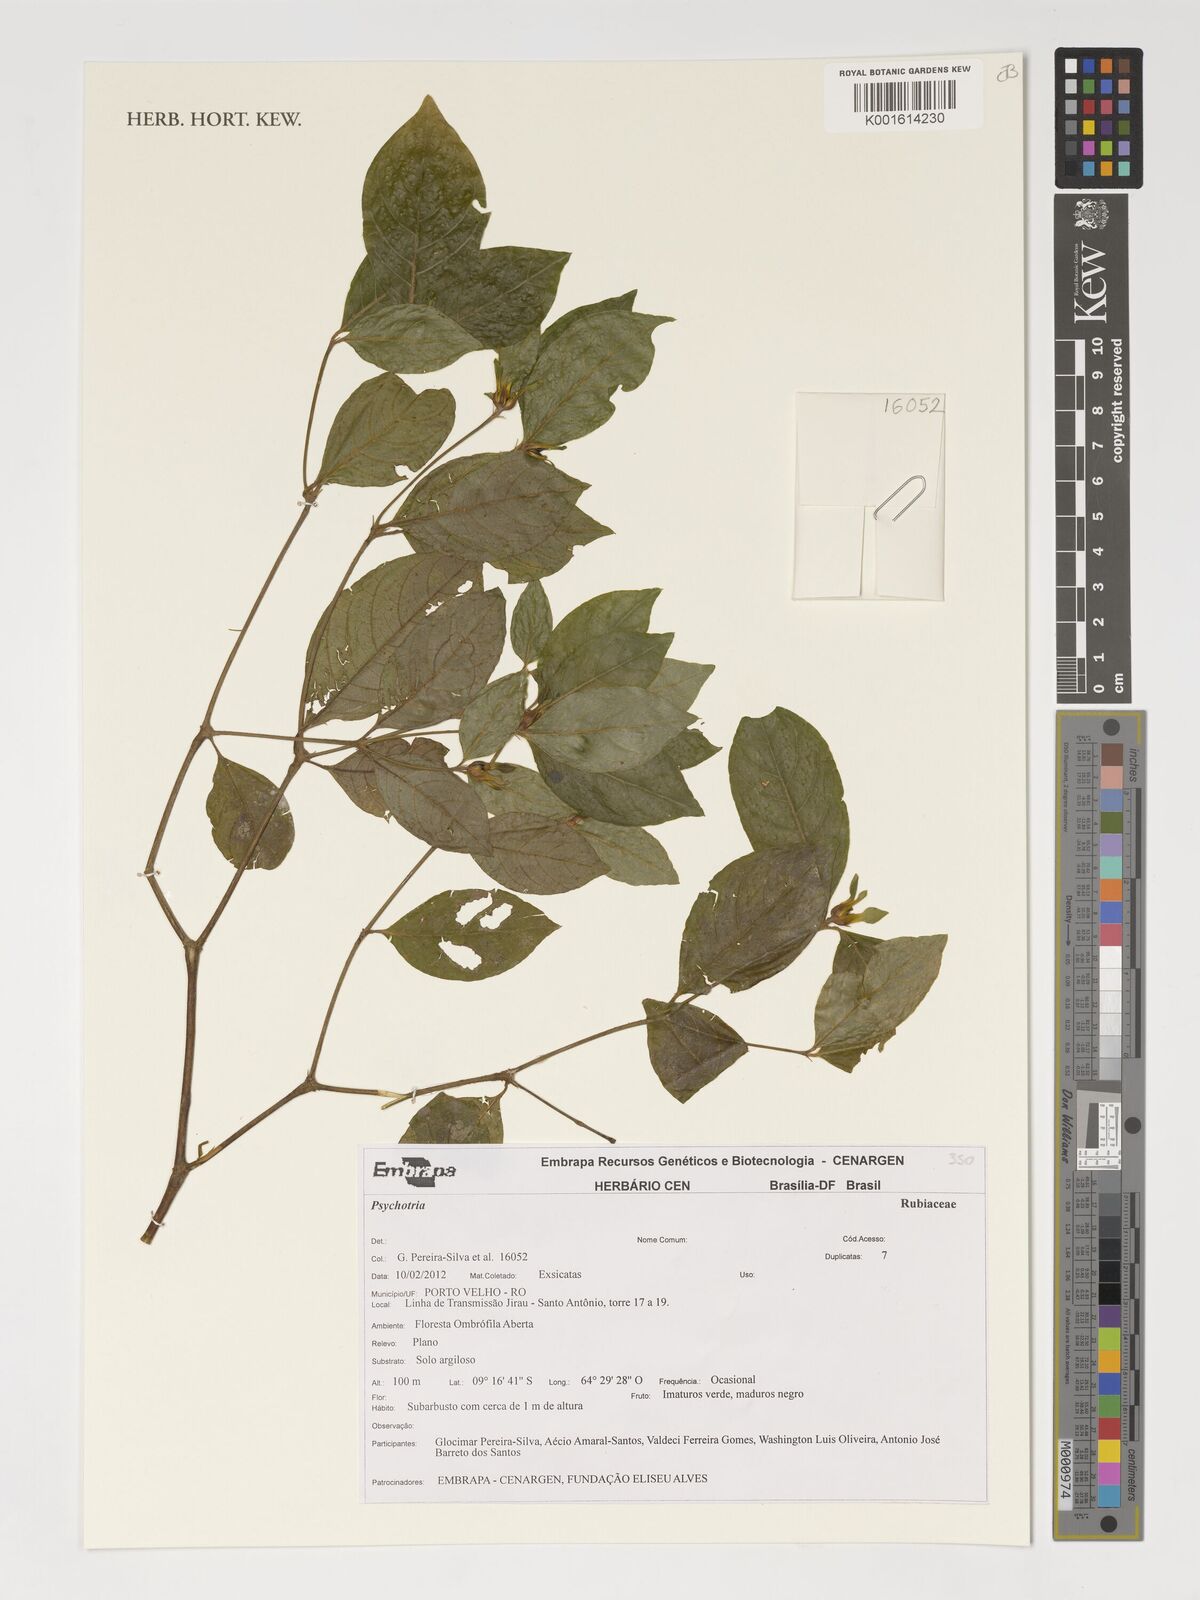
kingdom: Plantae
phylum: Tracheophyta
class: Magnoliopsida
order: Gentianales
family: Rubiaceae
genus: Psychotria
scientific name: Psychotria
